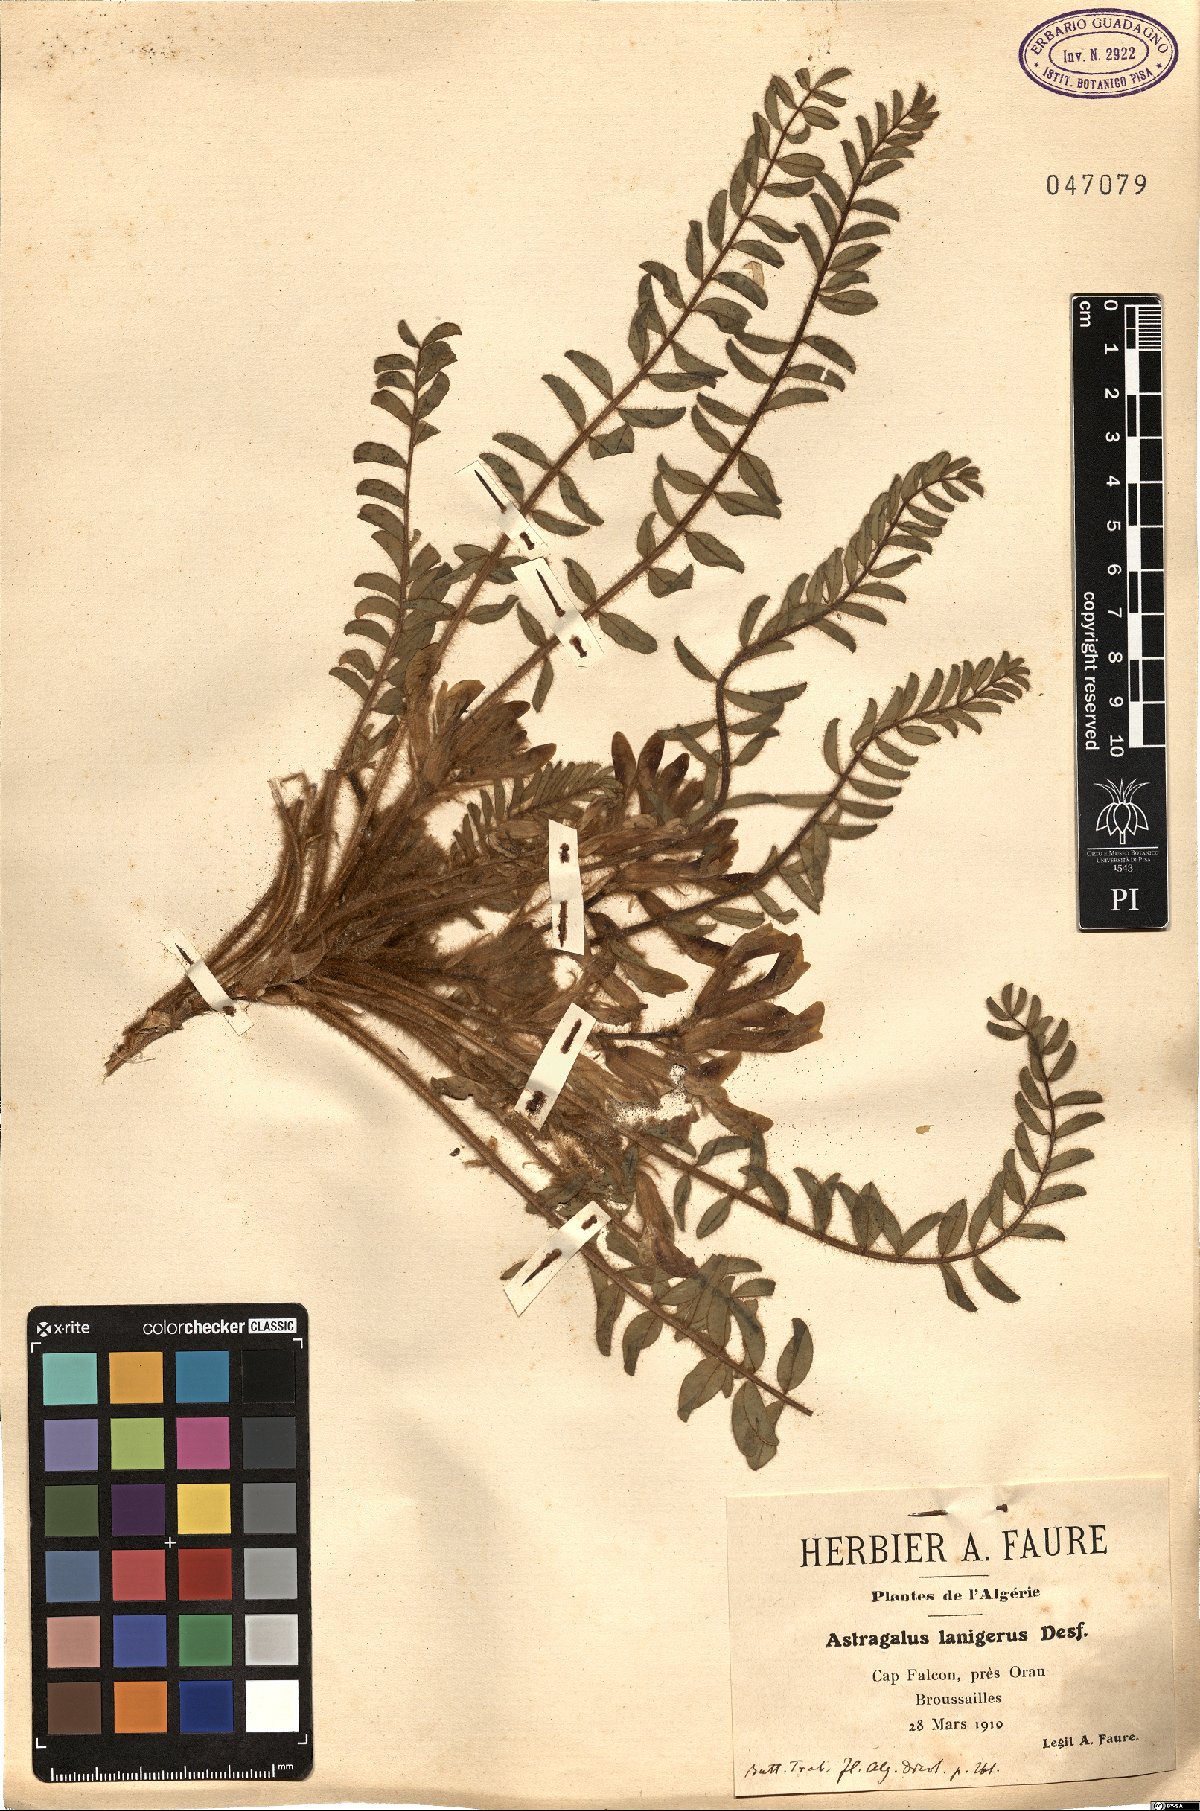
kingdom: Plantae
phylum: Tracheophyta
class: Magnoliopsida
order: Fabales
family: Fabaceae
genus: Astragalus
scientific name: Astragalus caprinus
